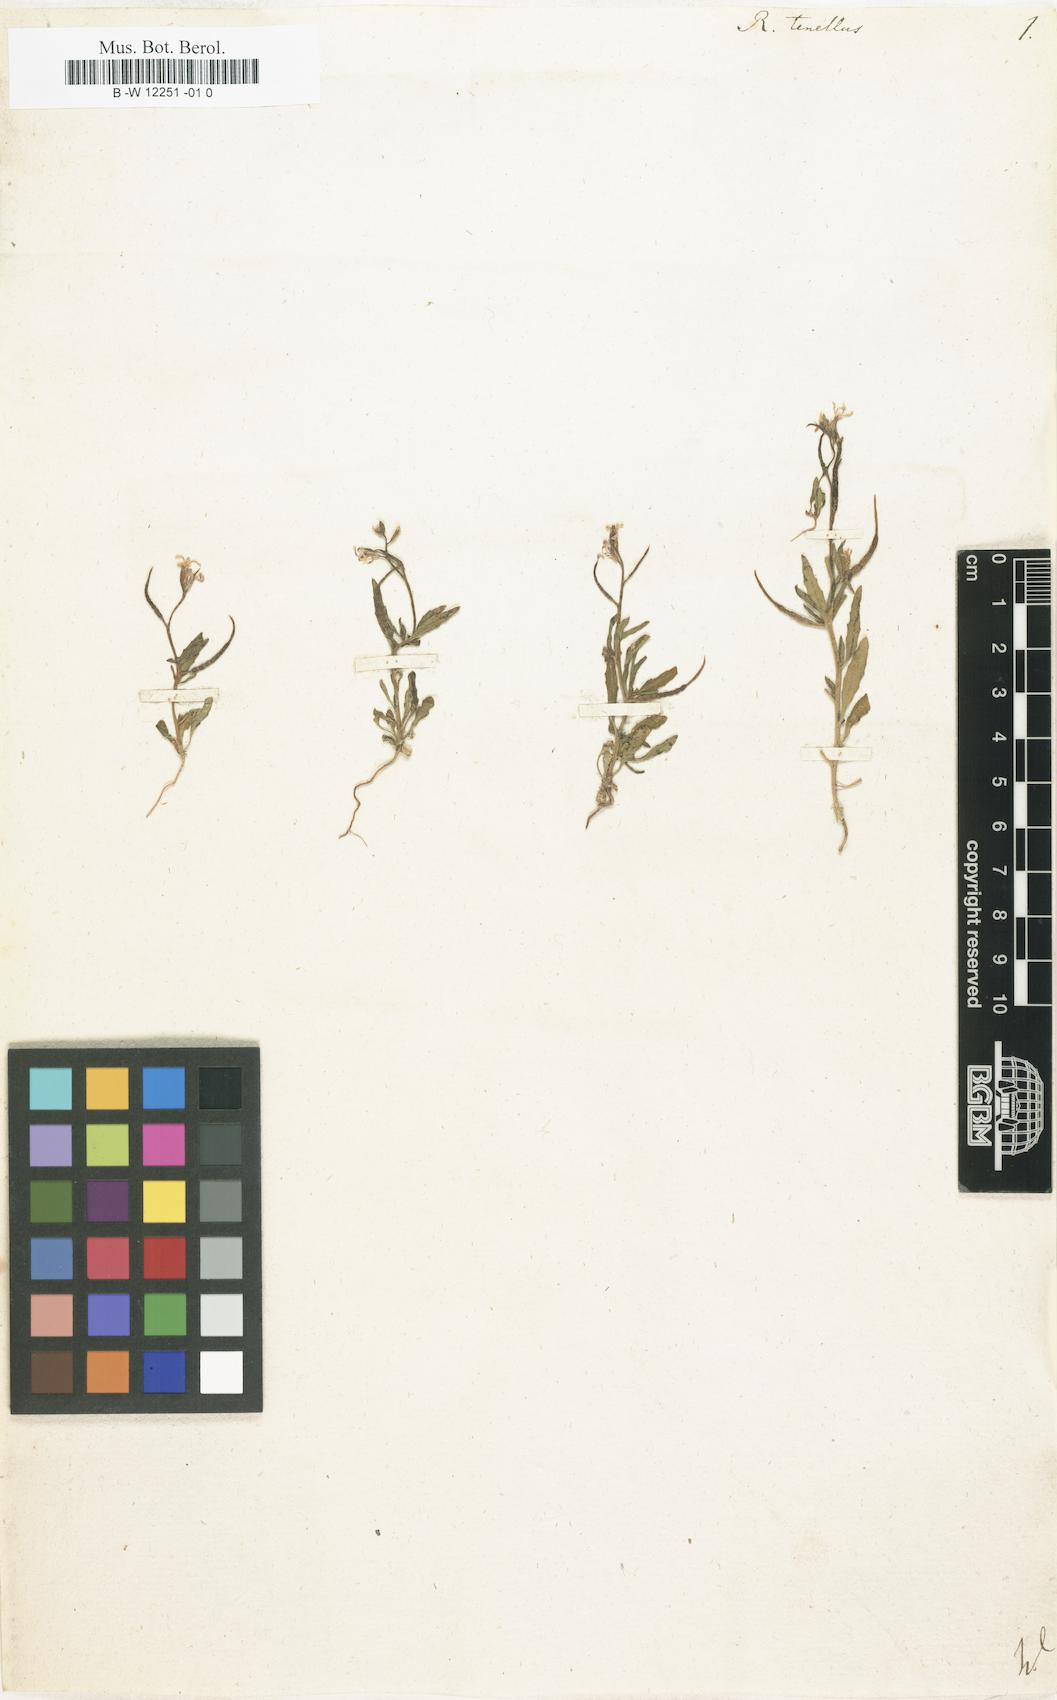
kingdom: Plantae
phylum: Tracheophyta
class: Magnoliopsida
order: Brassicales
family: Brassicaceae
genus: Chorispora
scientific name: Chorispora tenella
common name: Crossflower
